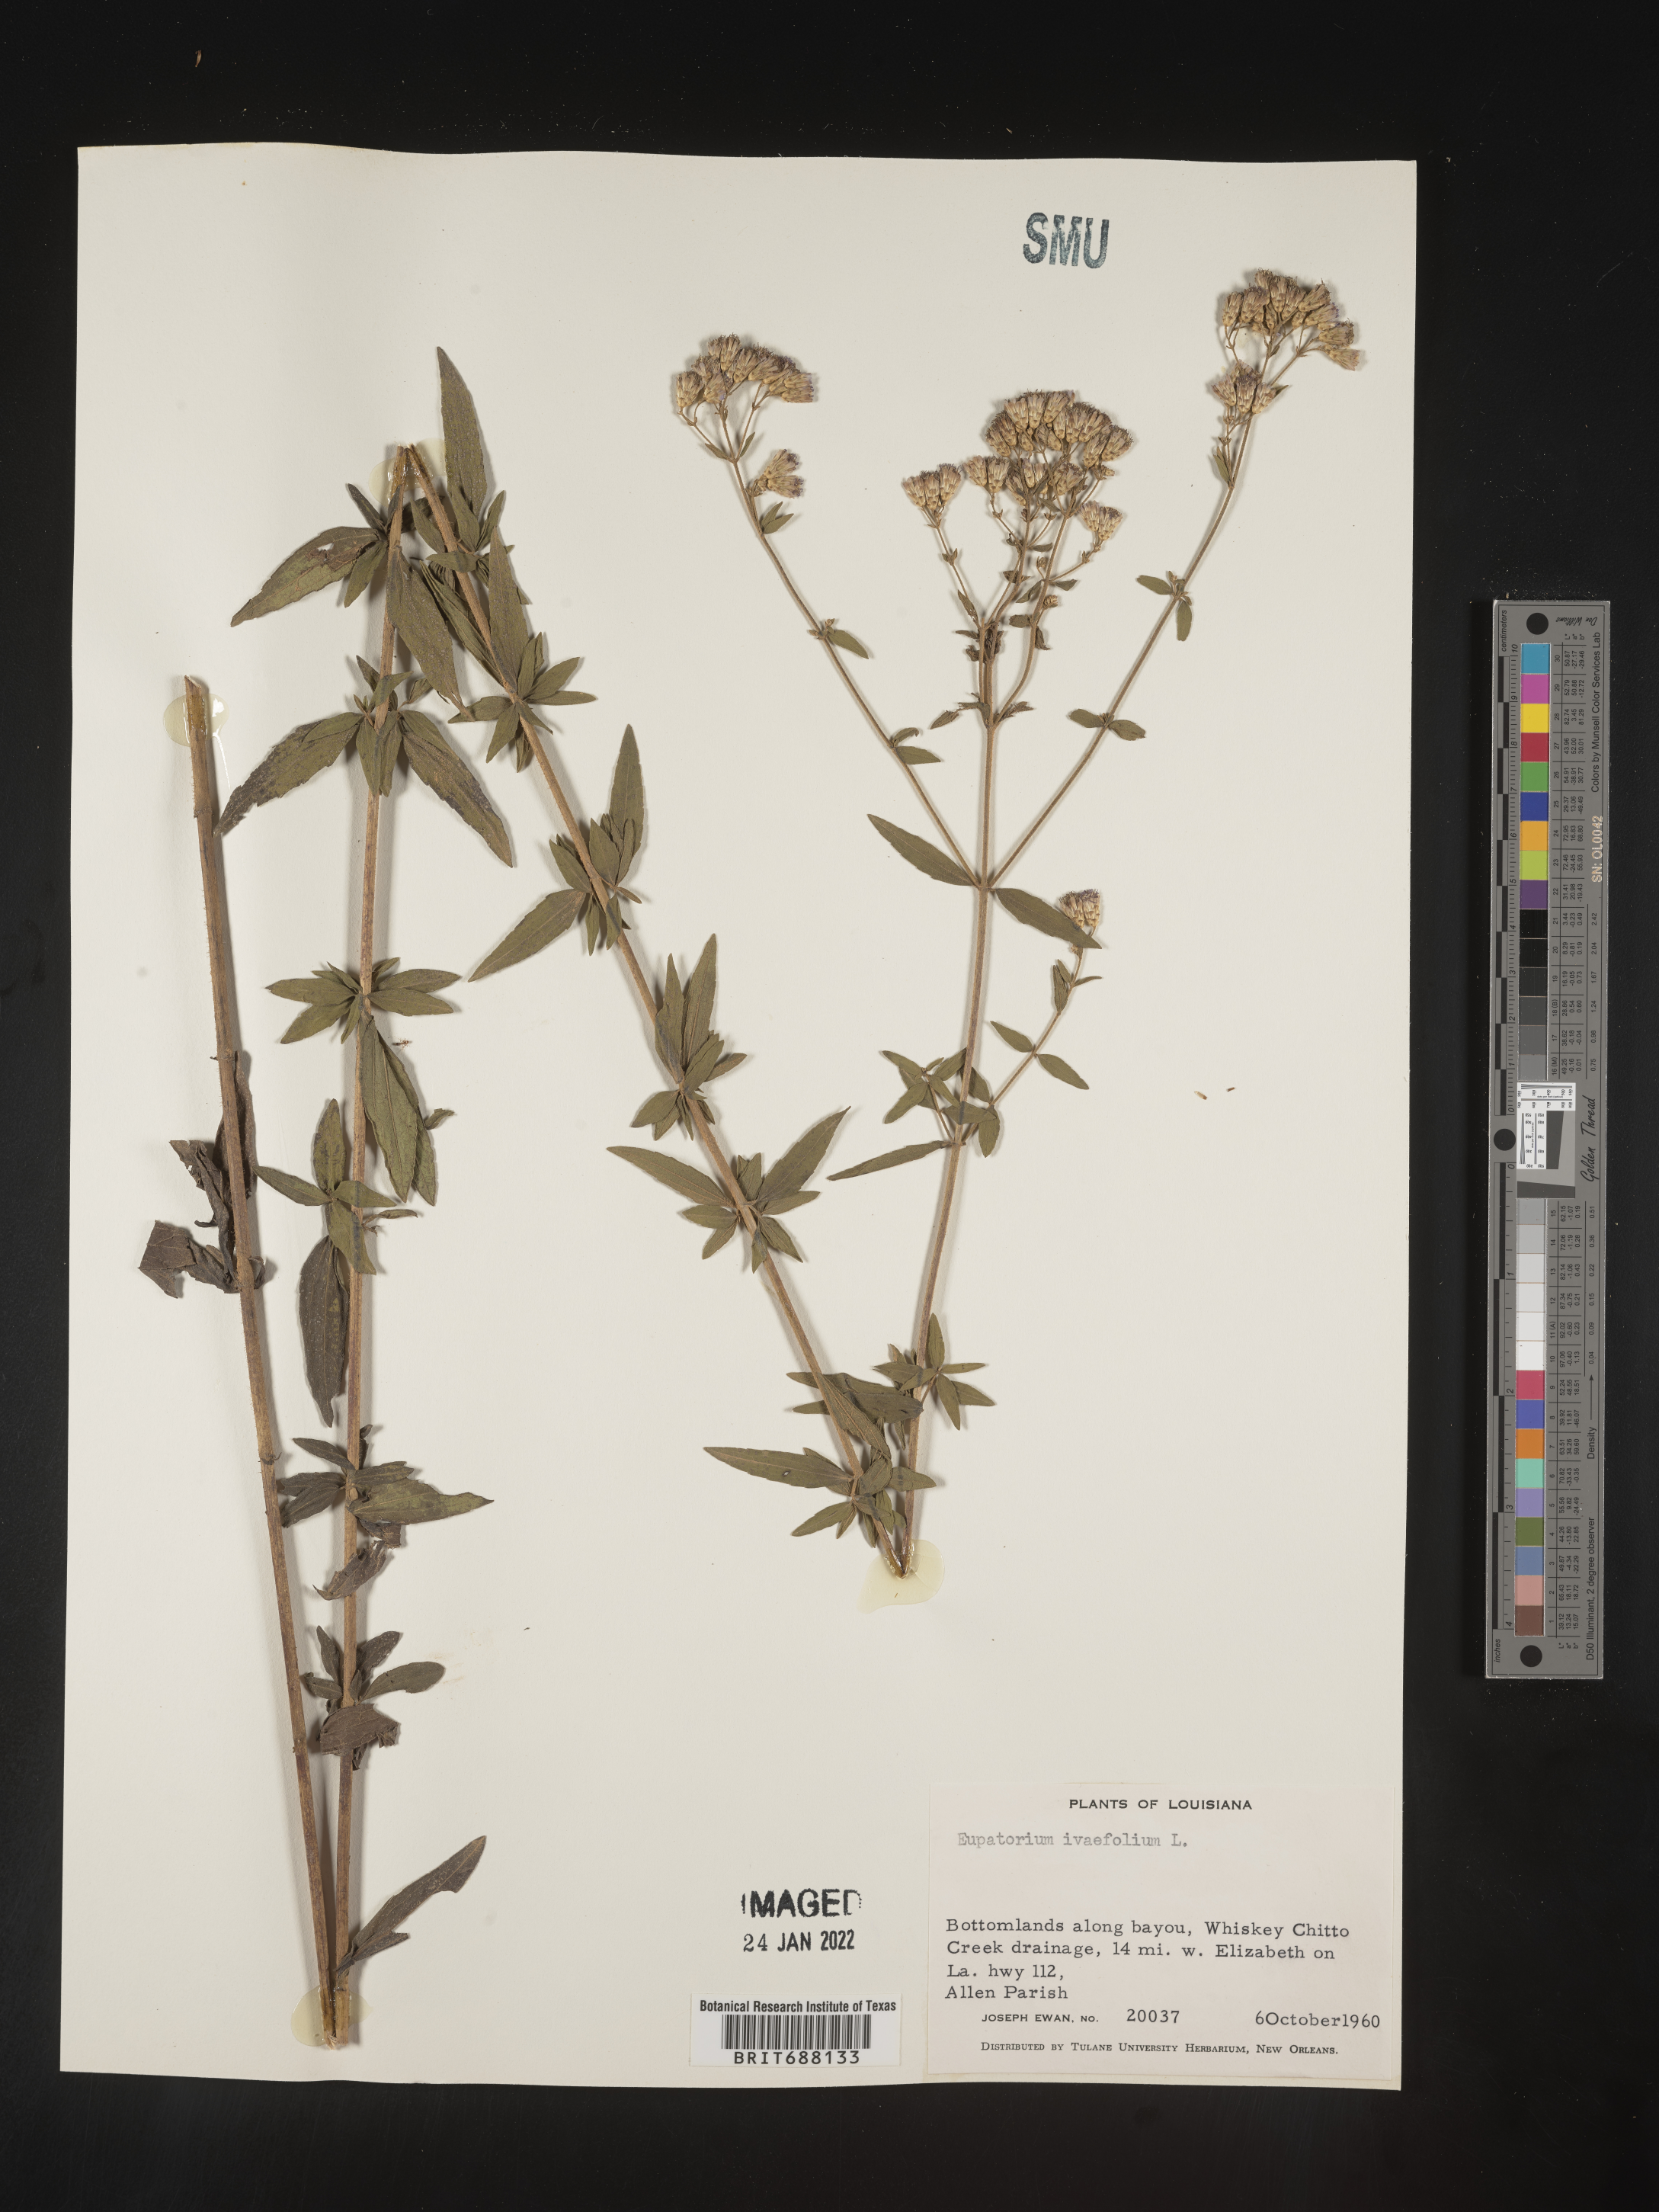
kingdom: Plantae
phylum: Tracheophyta
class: Magnoliopsida
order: Asterales
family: Asteraceae
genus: Chromolaena
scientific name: Chromolaena ivifolia
